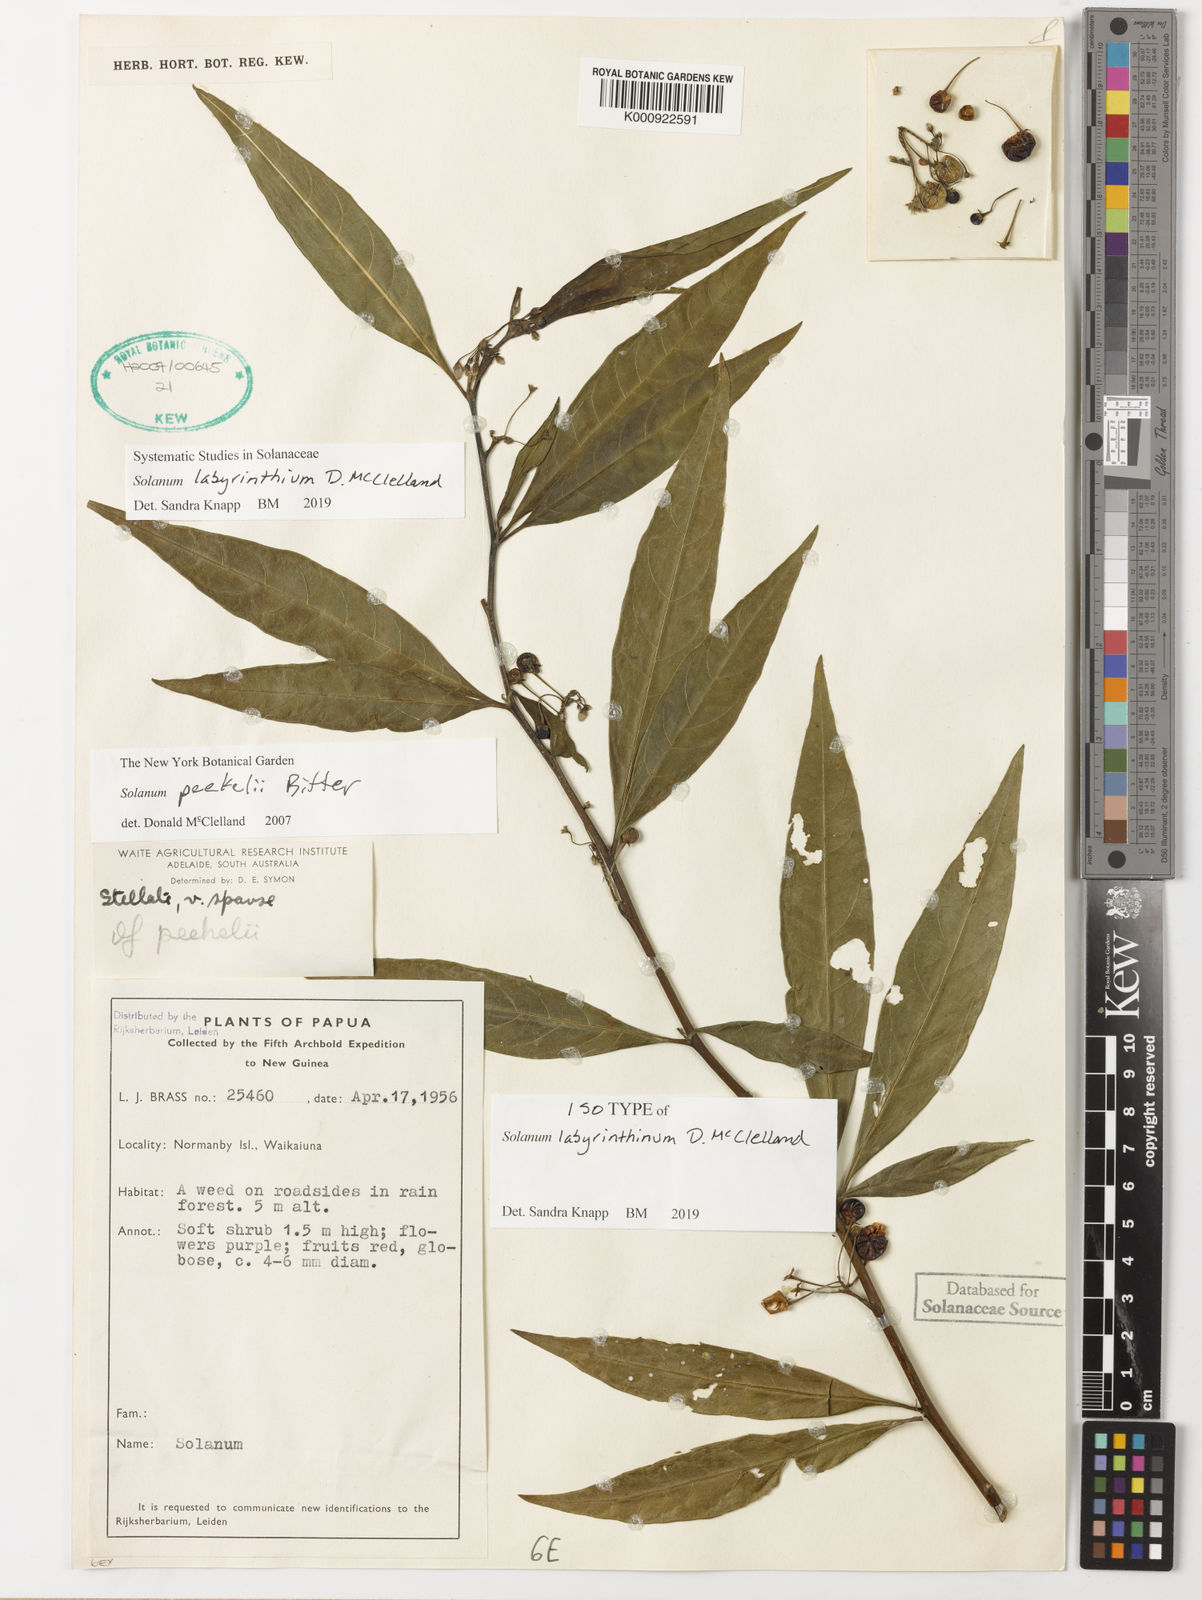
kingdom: Plantae
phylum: Tracheophyta
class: Magnoliopsida
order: Solanales
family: Solanaceae
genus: Solanum
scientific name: Solanum
